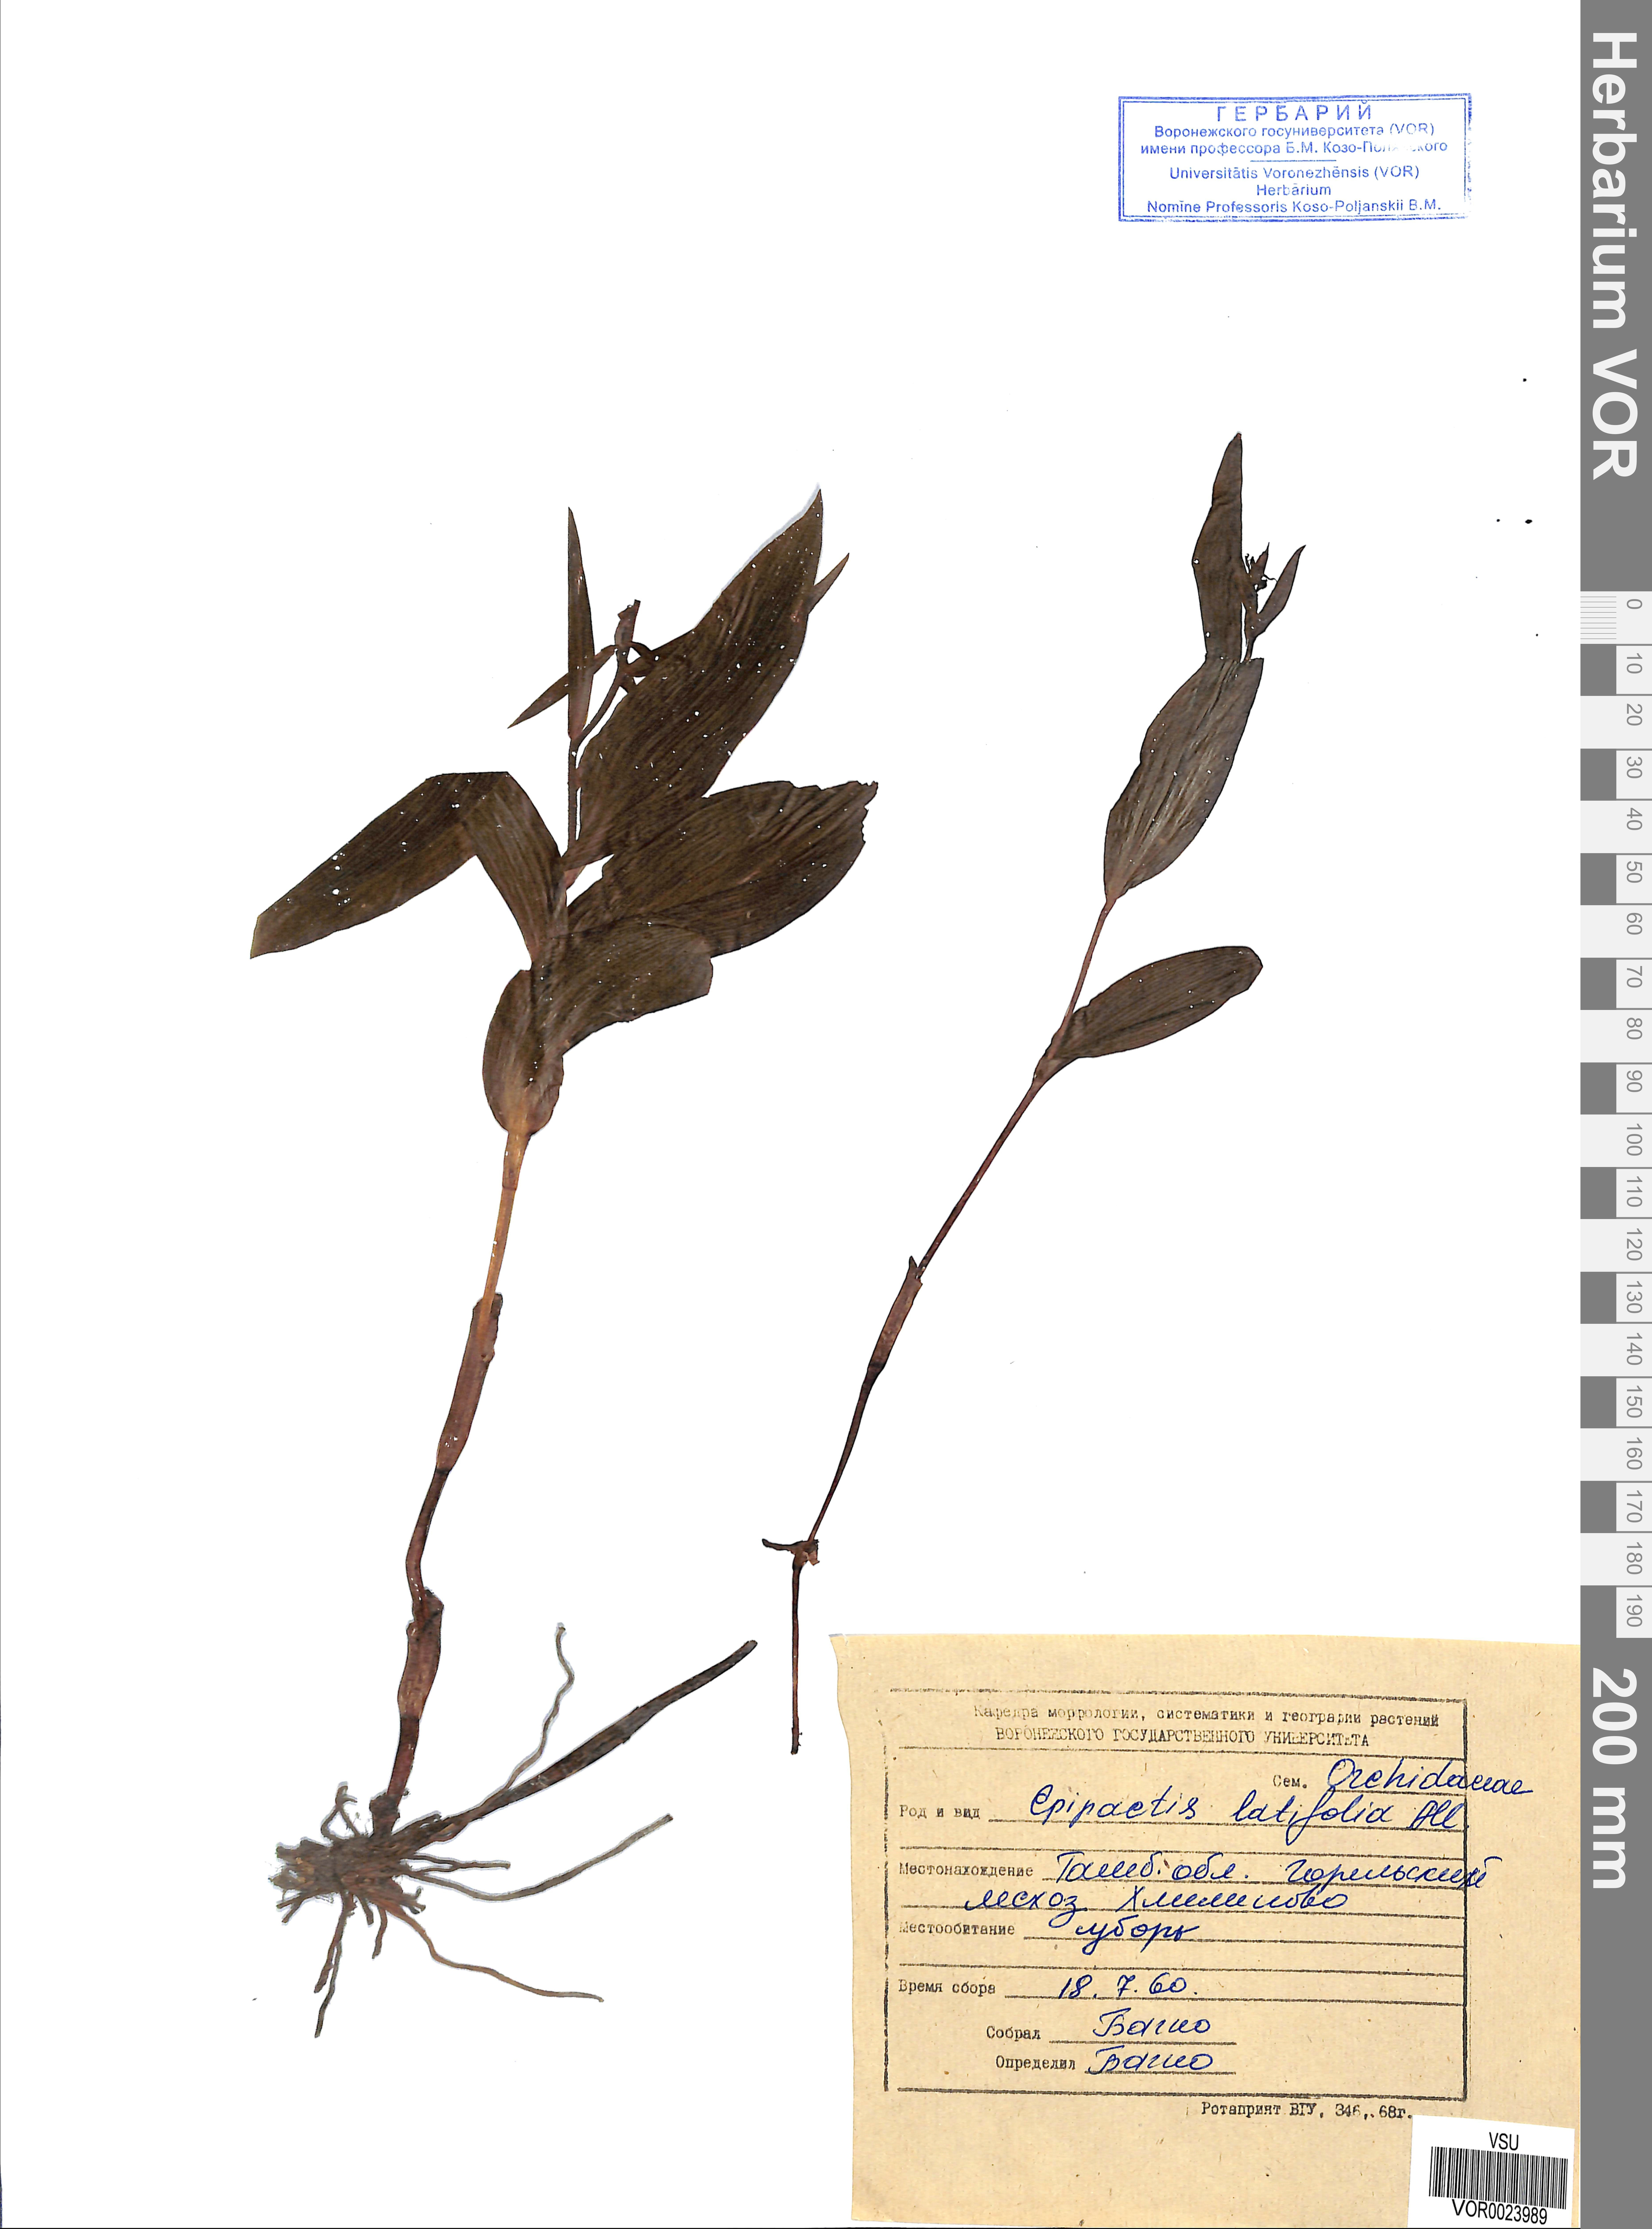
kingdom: Plantae
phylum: Tracheophyta
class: Liliopsida
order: Asparagales
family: Orchidaceae
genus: Epipactis
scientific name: Epipactis helleborine
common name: Broad-leaved helleborine
